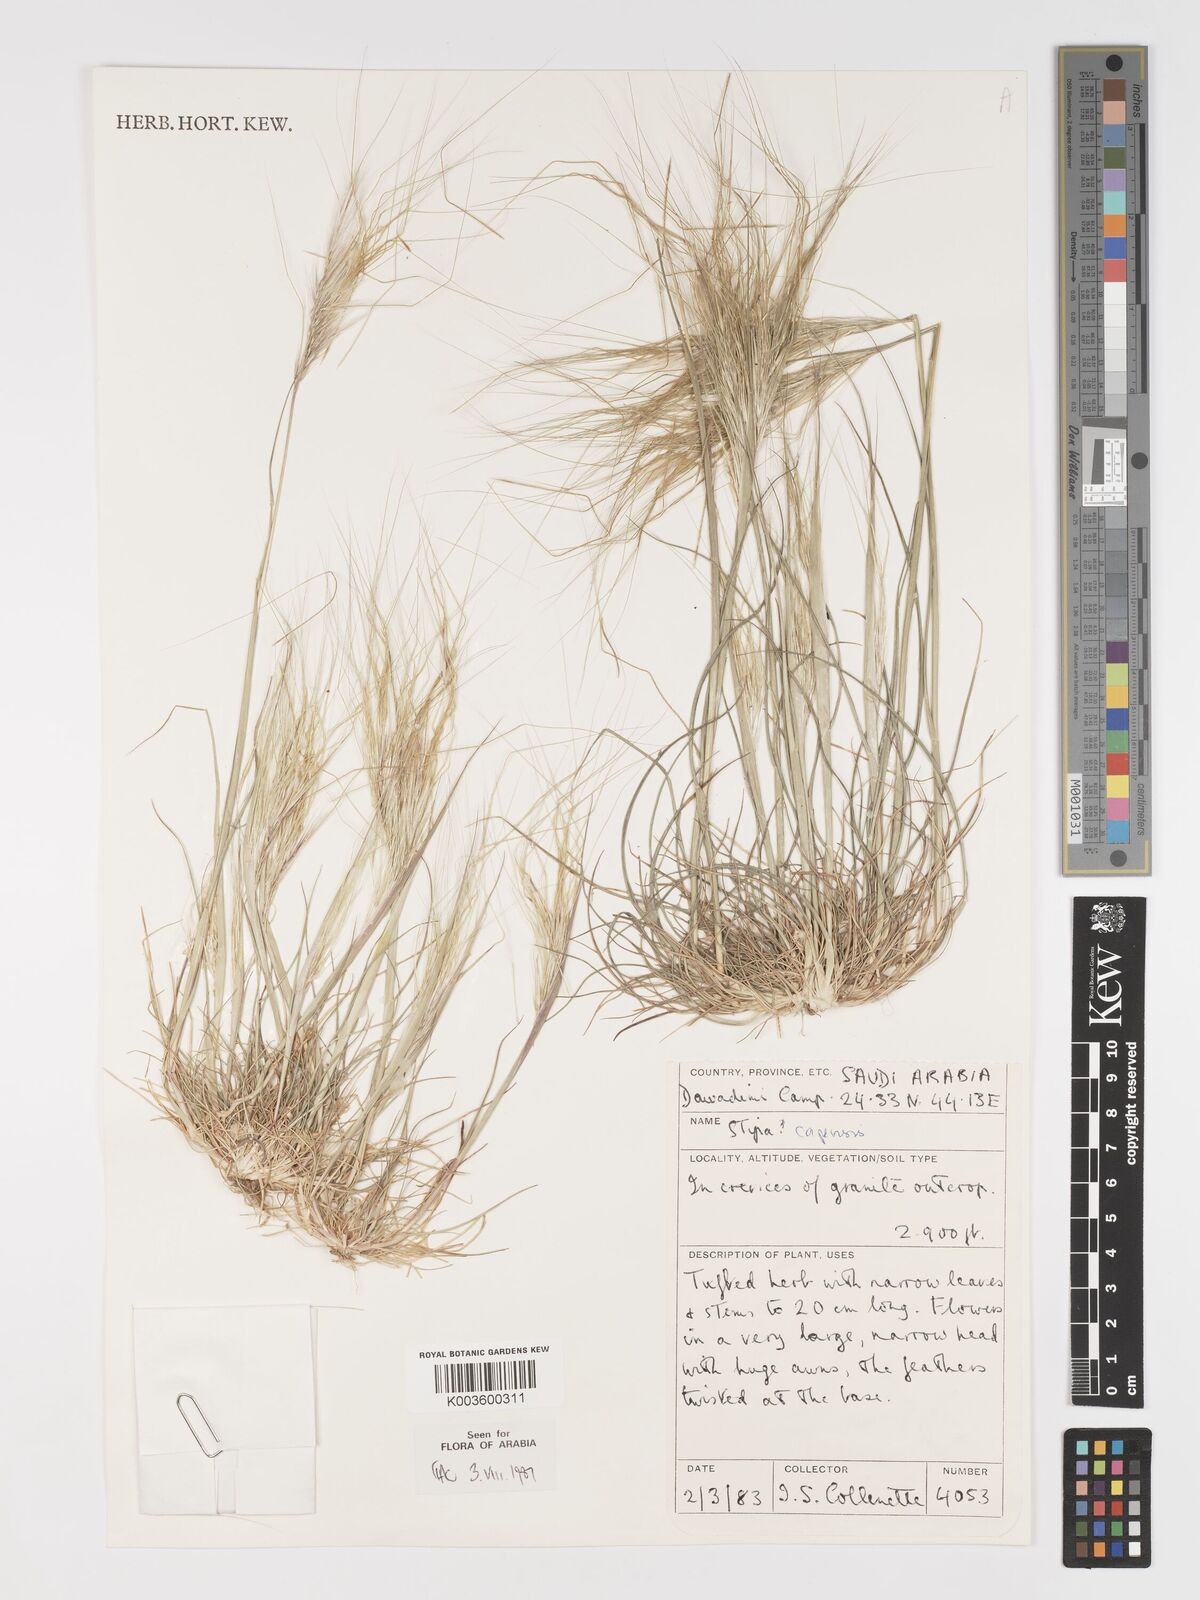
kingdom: Plantae
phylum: Tracheophyta
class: Liliopsida
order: Poales
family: Poaceae
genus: Stipellula
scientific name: Stipellula capensis
